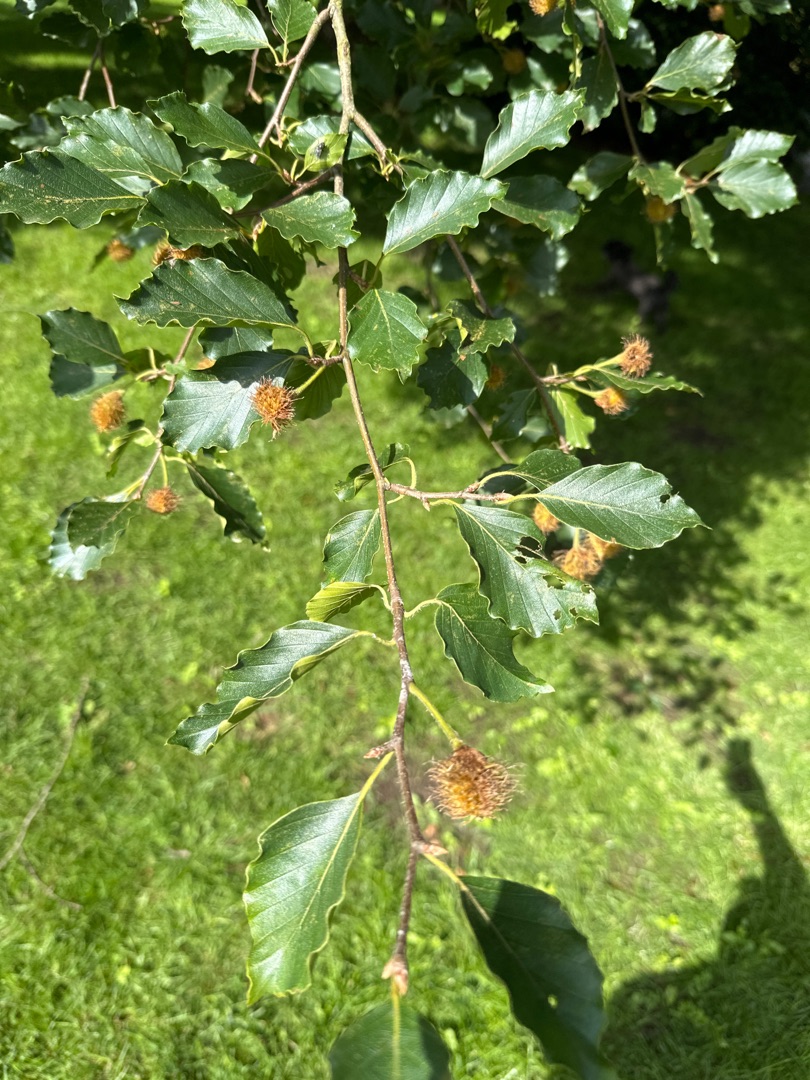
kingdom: Plantae
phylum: Tracheophyta
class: Magnoliopsida
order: Fagales
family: Fagaceae
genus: Fagus
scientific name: Fagus sylvatica
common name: Bøg
